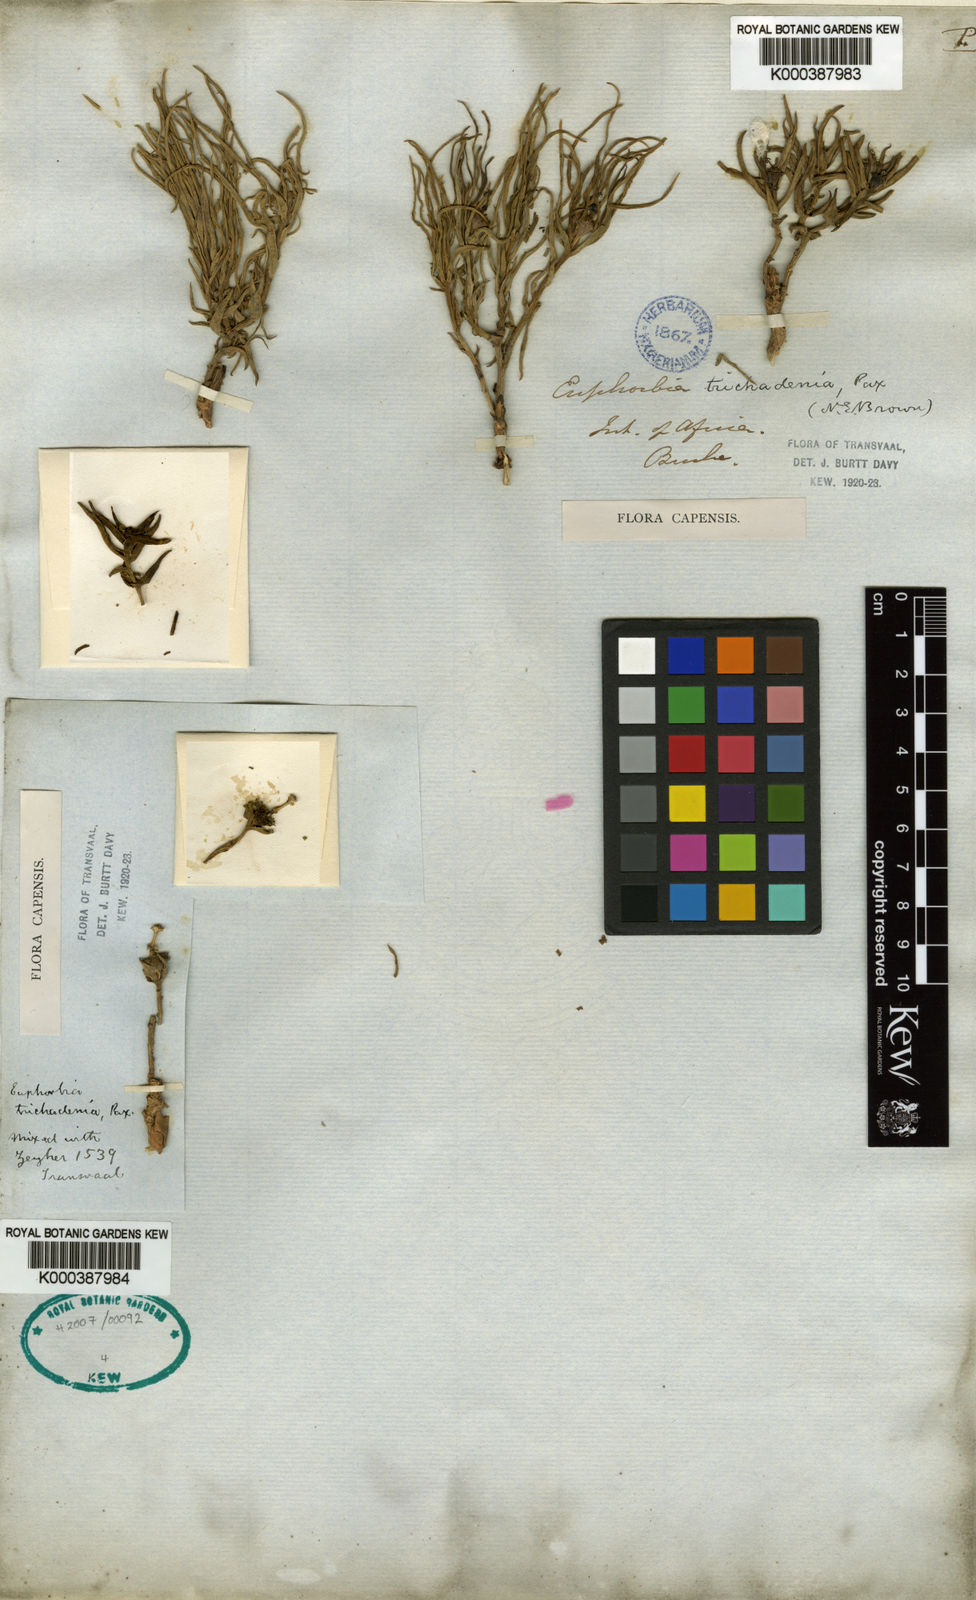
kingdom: Plantae
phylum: Tracheophyta
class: Magnoliopsida
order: Malpighiales
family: Euphorbiaceae
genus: Euphorbia
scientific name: Euphorbia trichadenia
